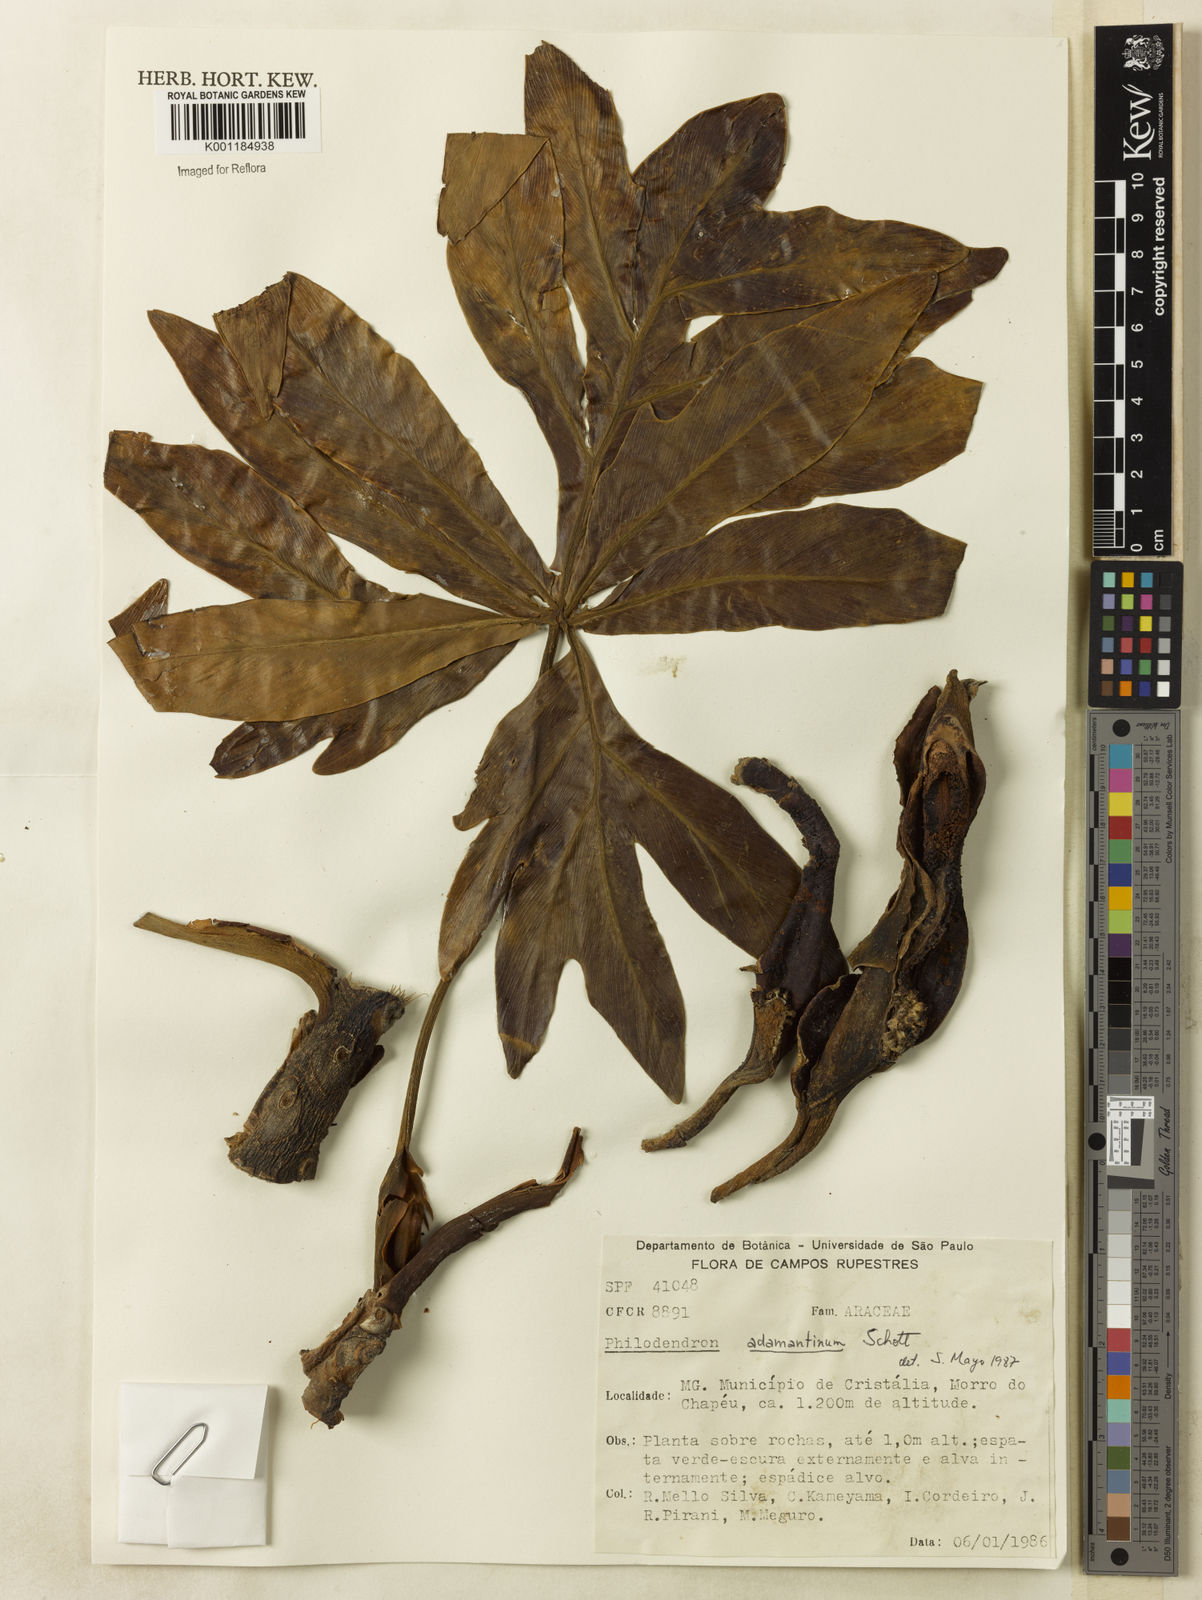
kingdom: Plantae
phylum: Tracheophyta
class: Liliopsida
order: Alismatales
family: Araceae
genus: Thaumatophyllum
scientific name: Thaumatophyllum adamantinum
